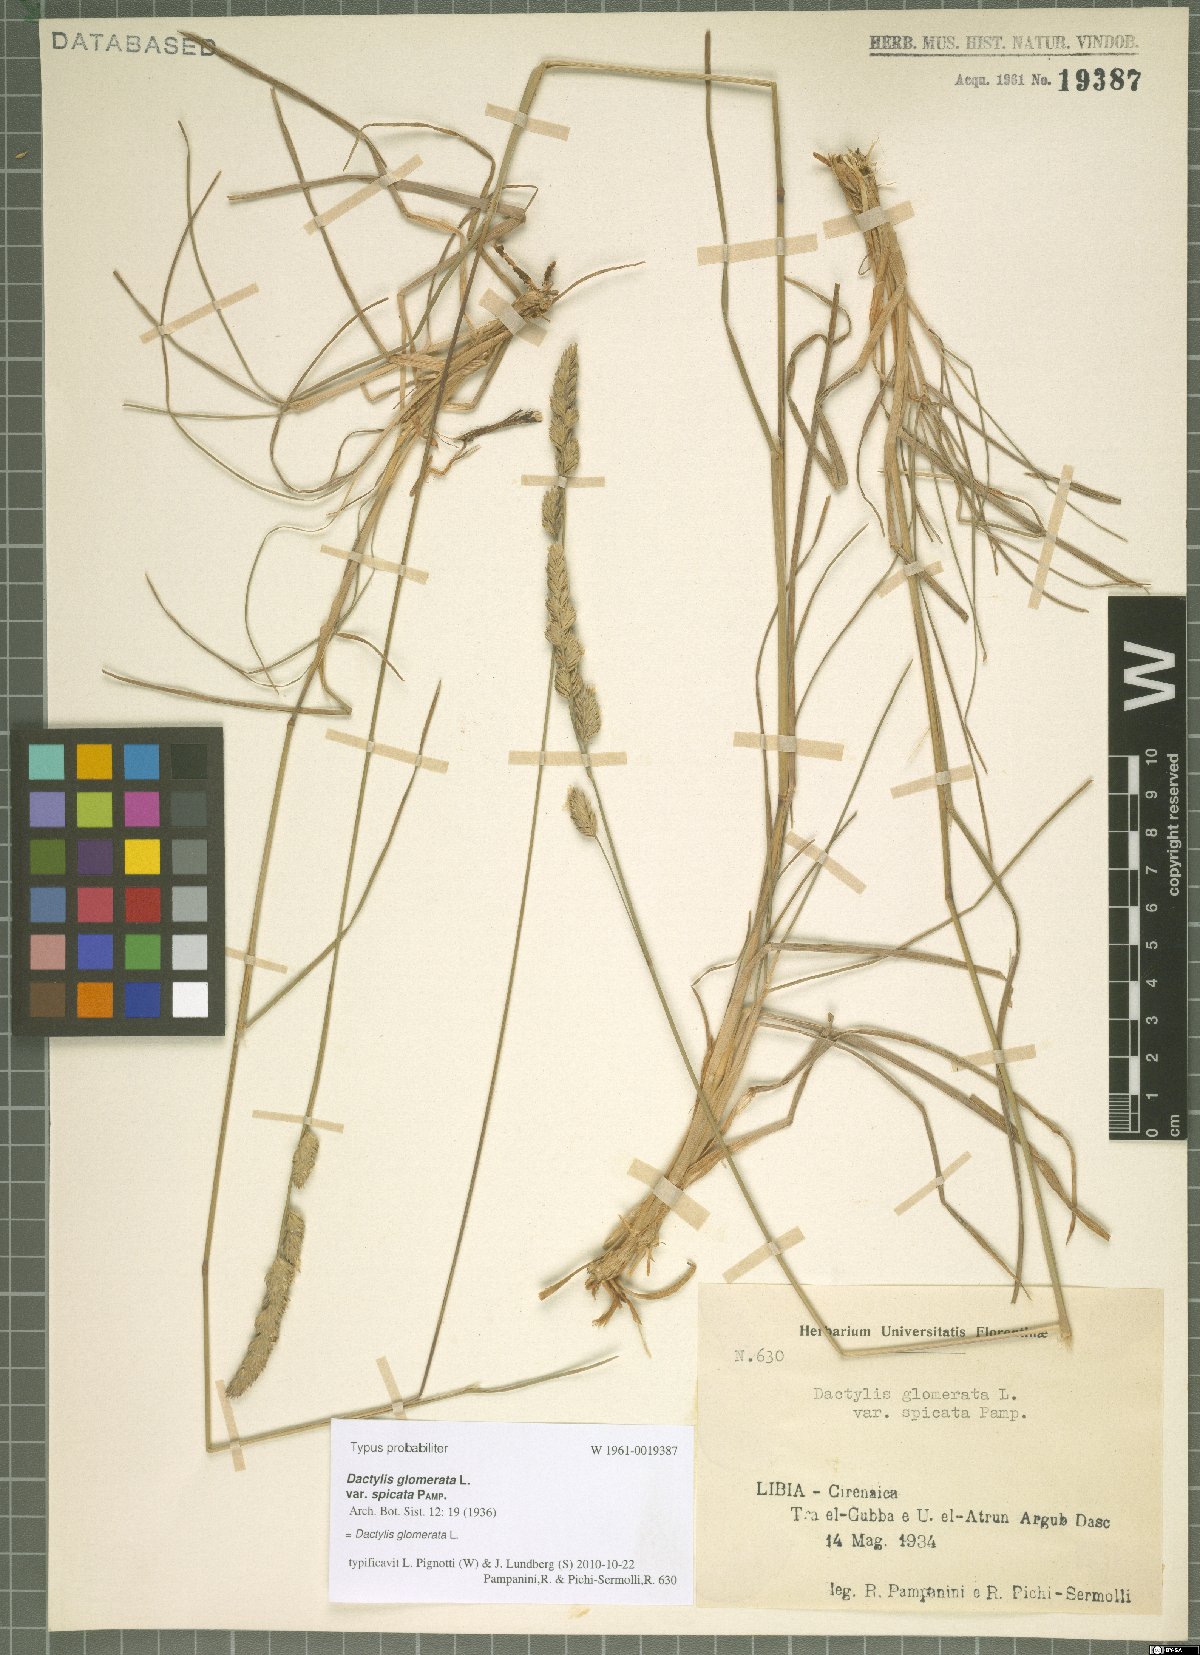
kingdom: Plantae
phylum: Tracheophyta
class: Liliopsida
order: Poales
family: Poaceae
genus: Dactylis
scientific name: Dactylis glomerata
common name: Orchardgrass
